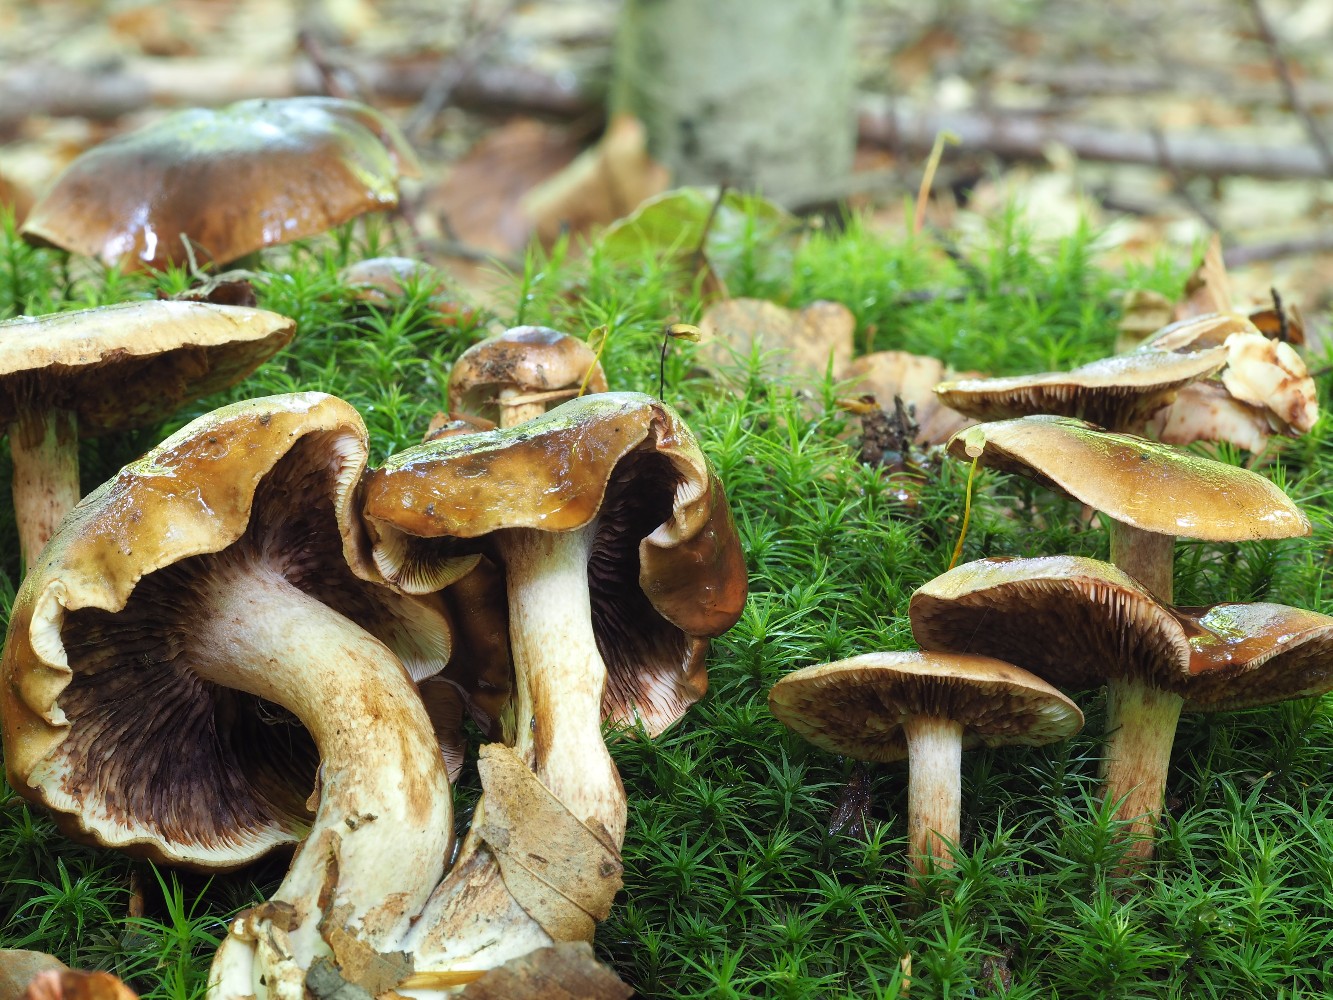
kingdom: Fungi
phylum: Basidiomycota
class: Agaricomycetes
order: Agaricales
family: Tricholomataceae
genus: Tricholoma
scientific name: Tricholoma ustale
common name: sveden ridderhat
